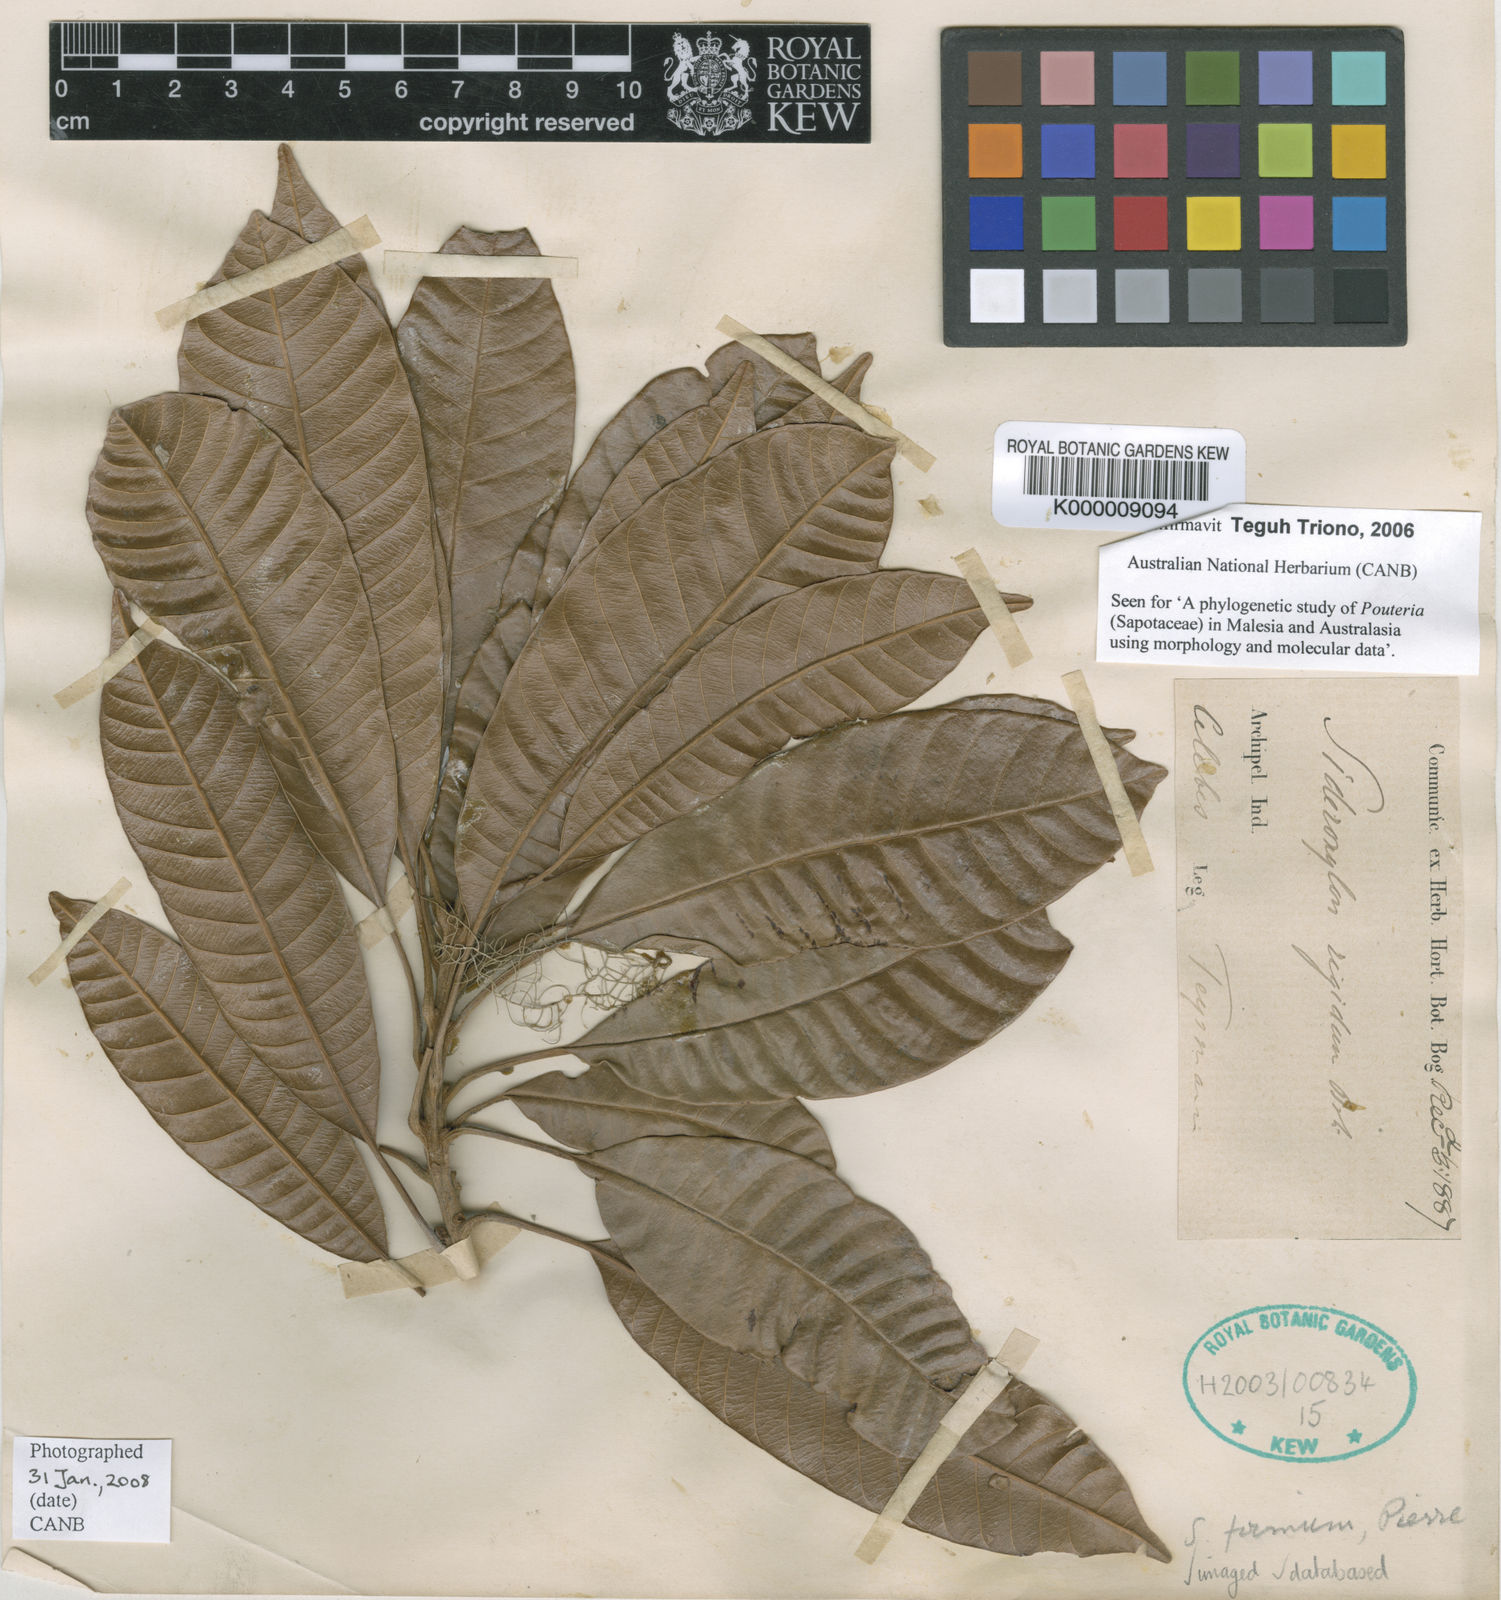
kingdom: Plantae
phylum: Tracheophyta
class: Magnoliopsida
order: Ericales
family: Sapotaceae
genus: Pleioluma
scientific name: Pleioluma firma
